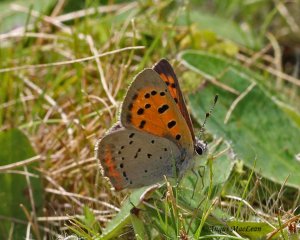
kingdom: Animalia
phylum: Arthropoda
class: Insecta
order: Lepidoptera
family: Lycaenidae
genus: Lycaena
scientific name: Lycaena phlaeas
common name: American Copper
